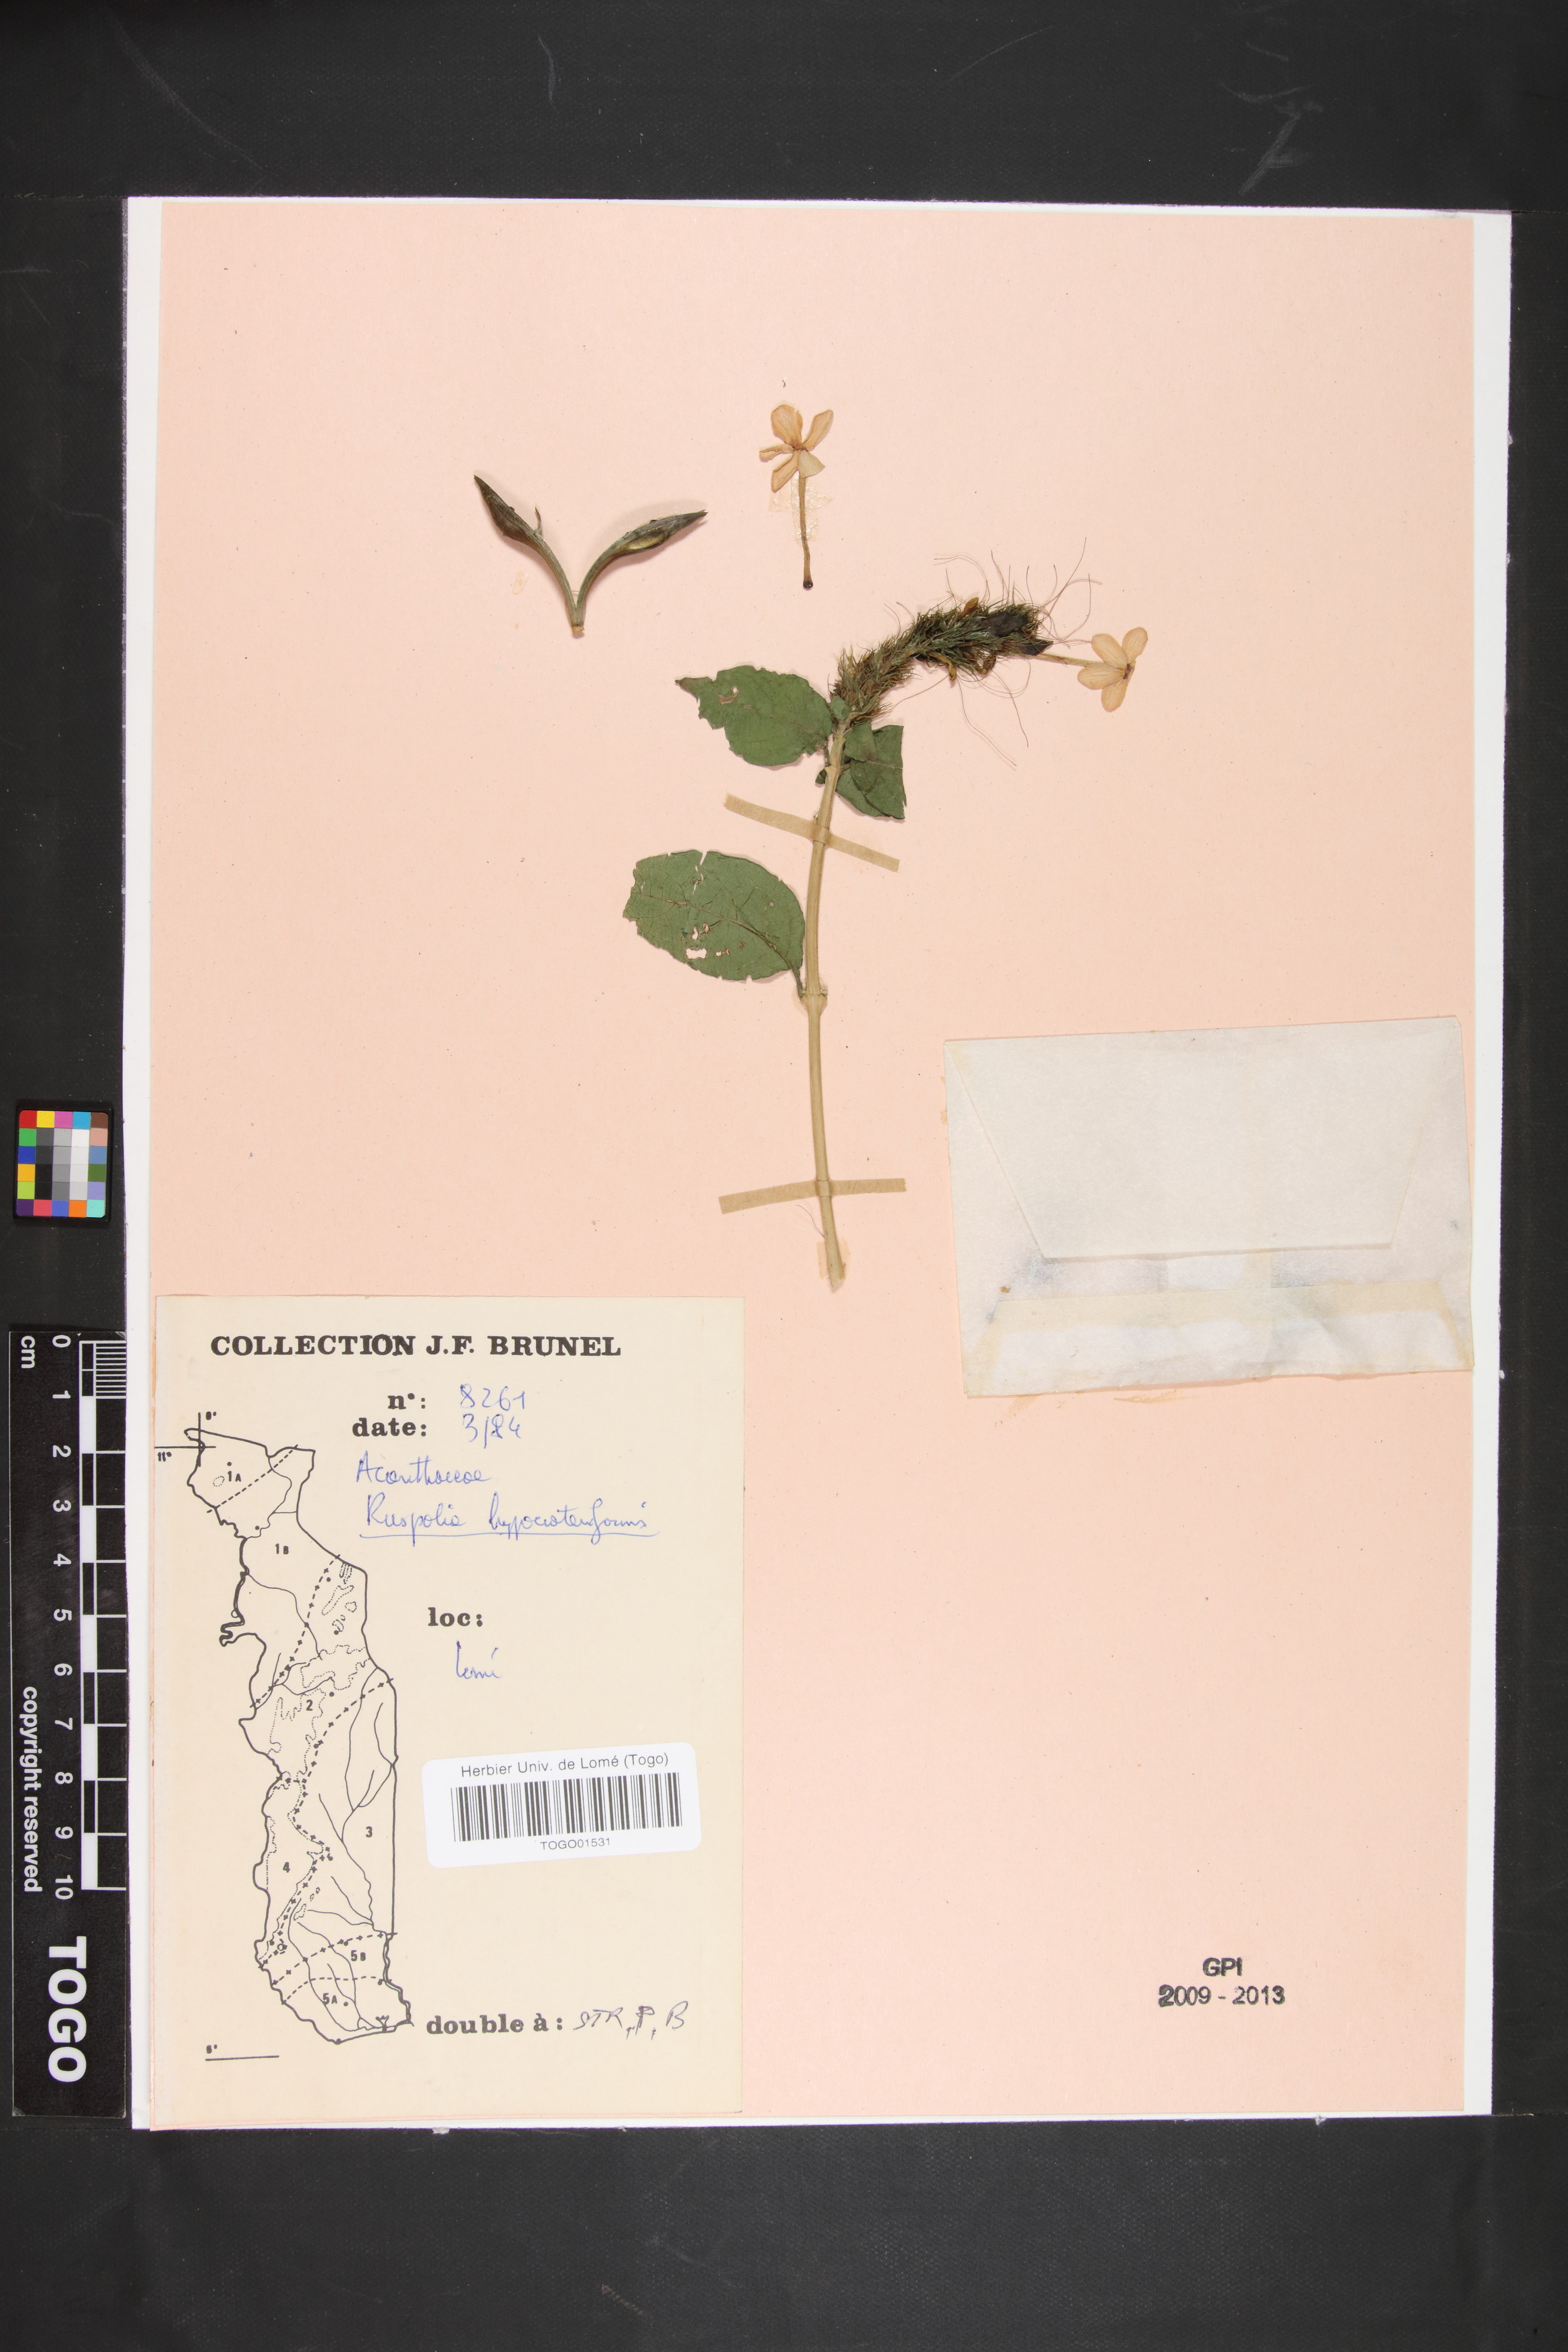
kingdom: Plantae
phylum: Tracheophyta
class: Magnoliopsida
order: Lamiales
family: Acanthaceae
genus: Ruspolia
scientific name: Ruspolia hypocrateriformis
